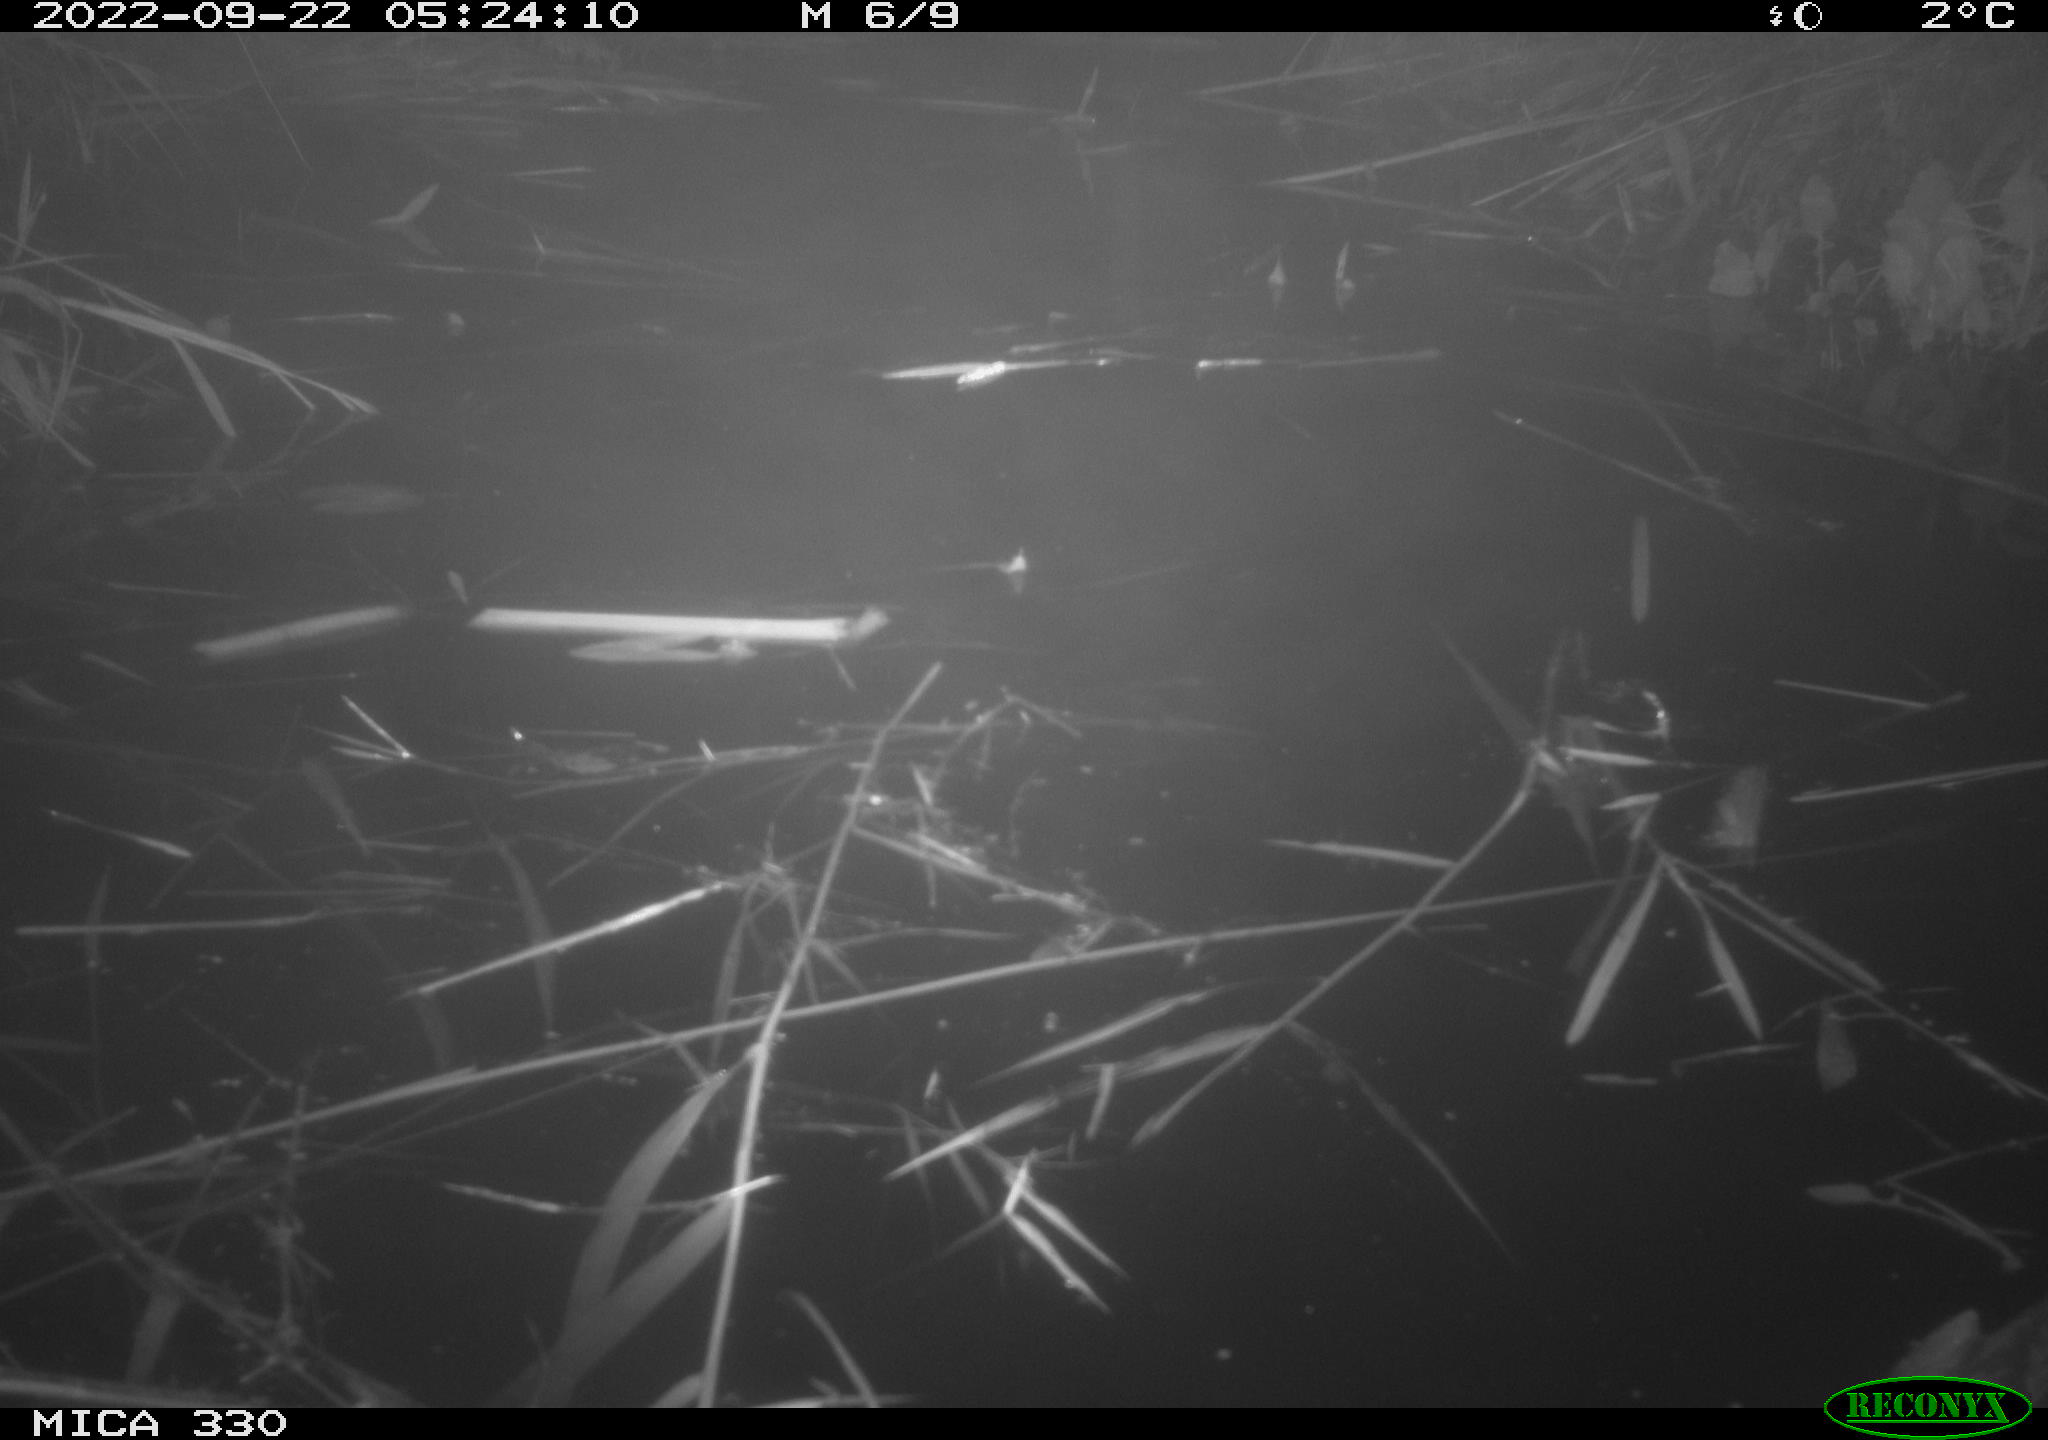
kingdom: Animalia
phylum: Chordata
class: Aves
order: Anseriformes
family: Anatidae
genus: Anas
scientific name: Anas platyrhynchos
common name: Mallard
